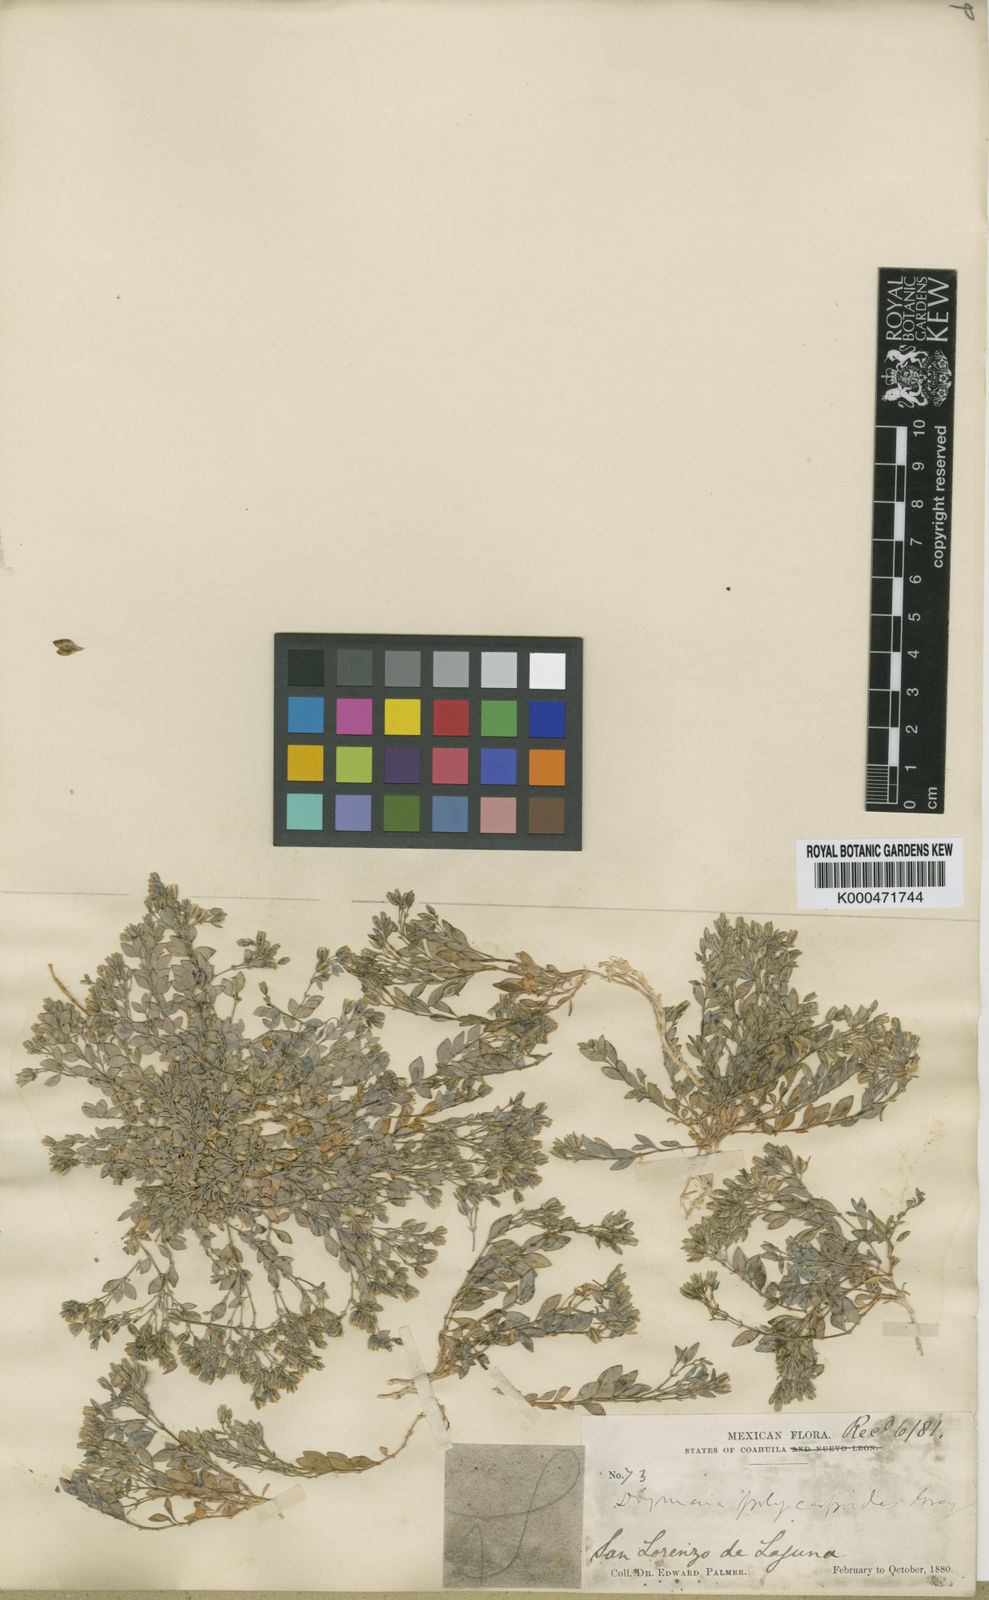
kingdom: Plantae
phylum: Tracheophyta
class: Magnoliopsida
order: Caryophyllales
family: Caryophyllaceae
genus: Drymaria
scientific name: Drymaria polycarpoides
